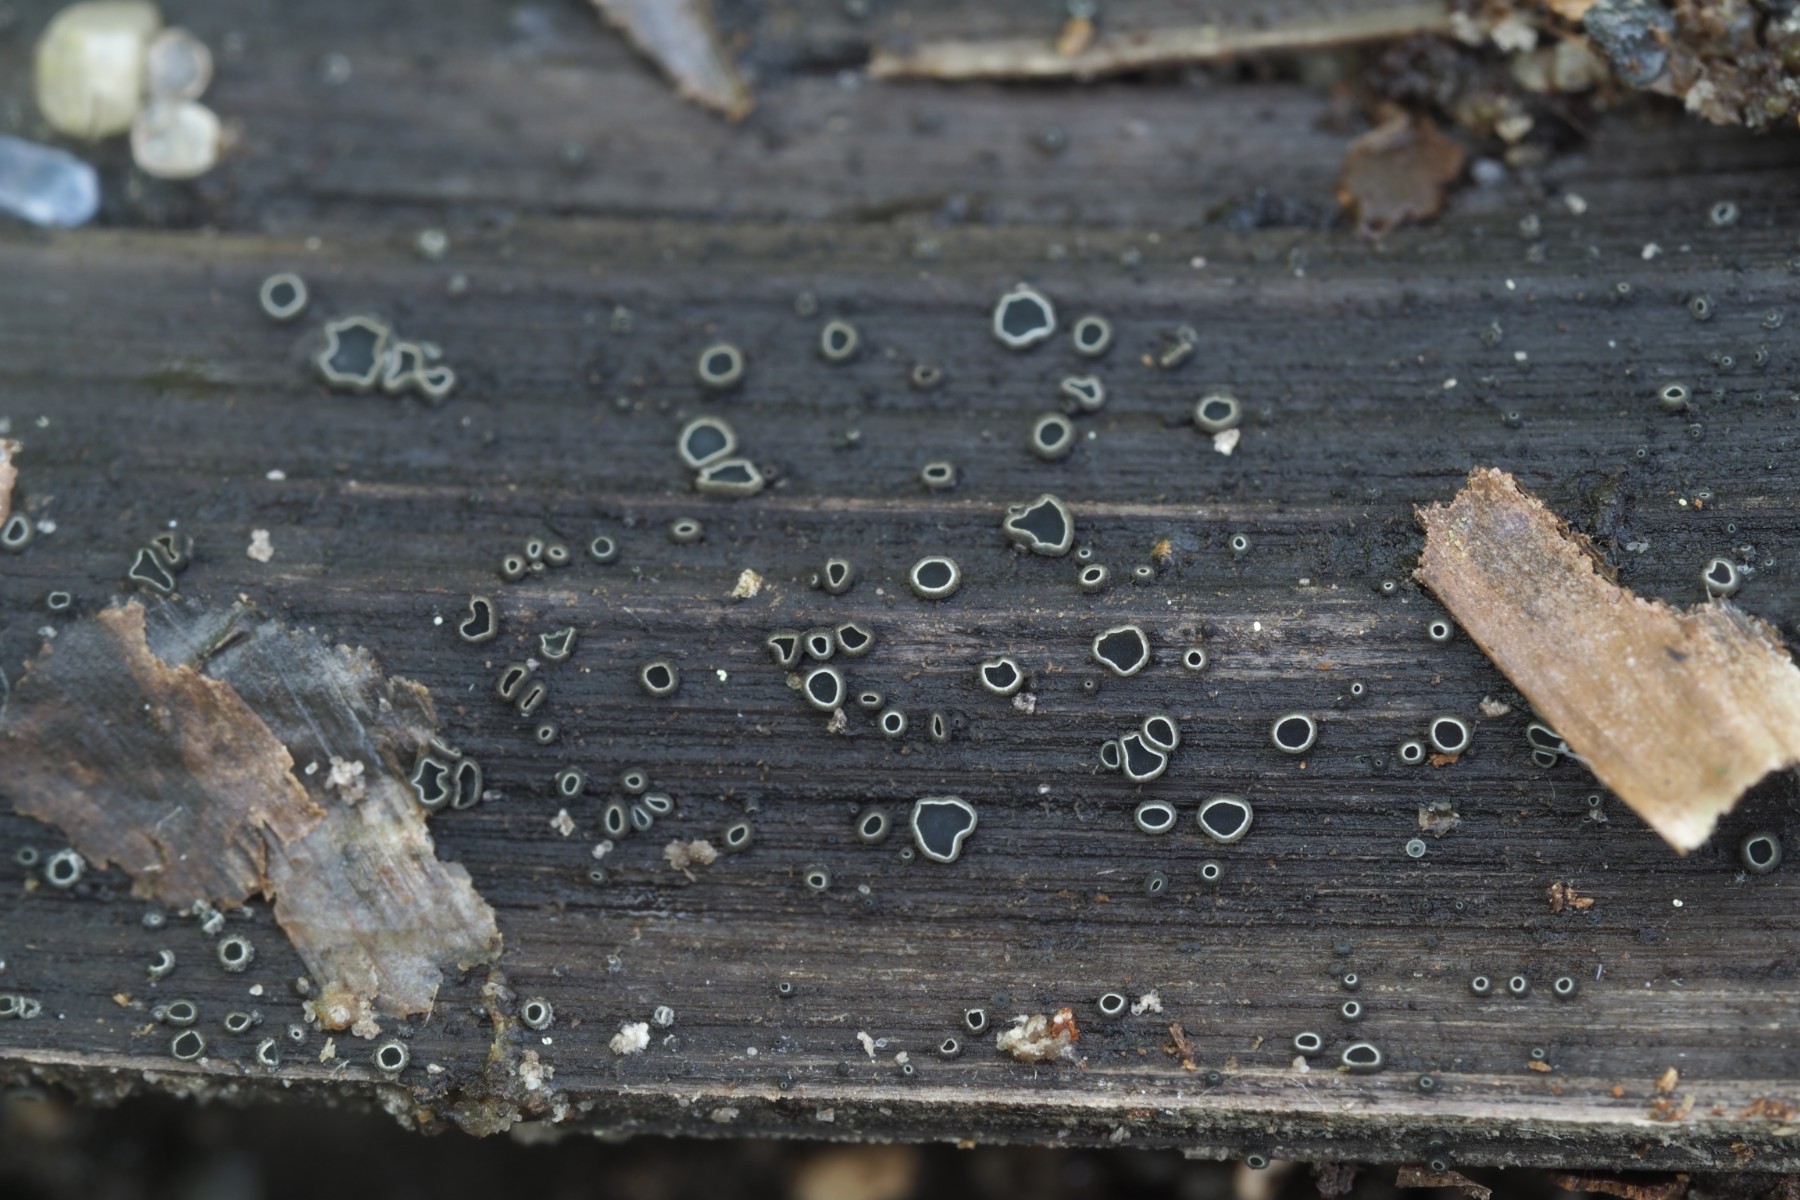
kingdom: Fungi
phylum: Ascomycota
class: Leotiomycetes
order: Helotiales
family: Ploettnerulaceae
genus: Pyrenopeziza
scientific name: Pyrenopeziza pastinacae
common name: stængel-kerneskive
